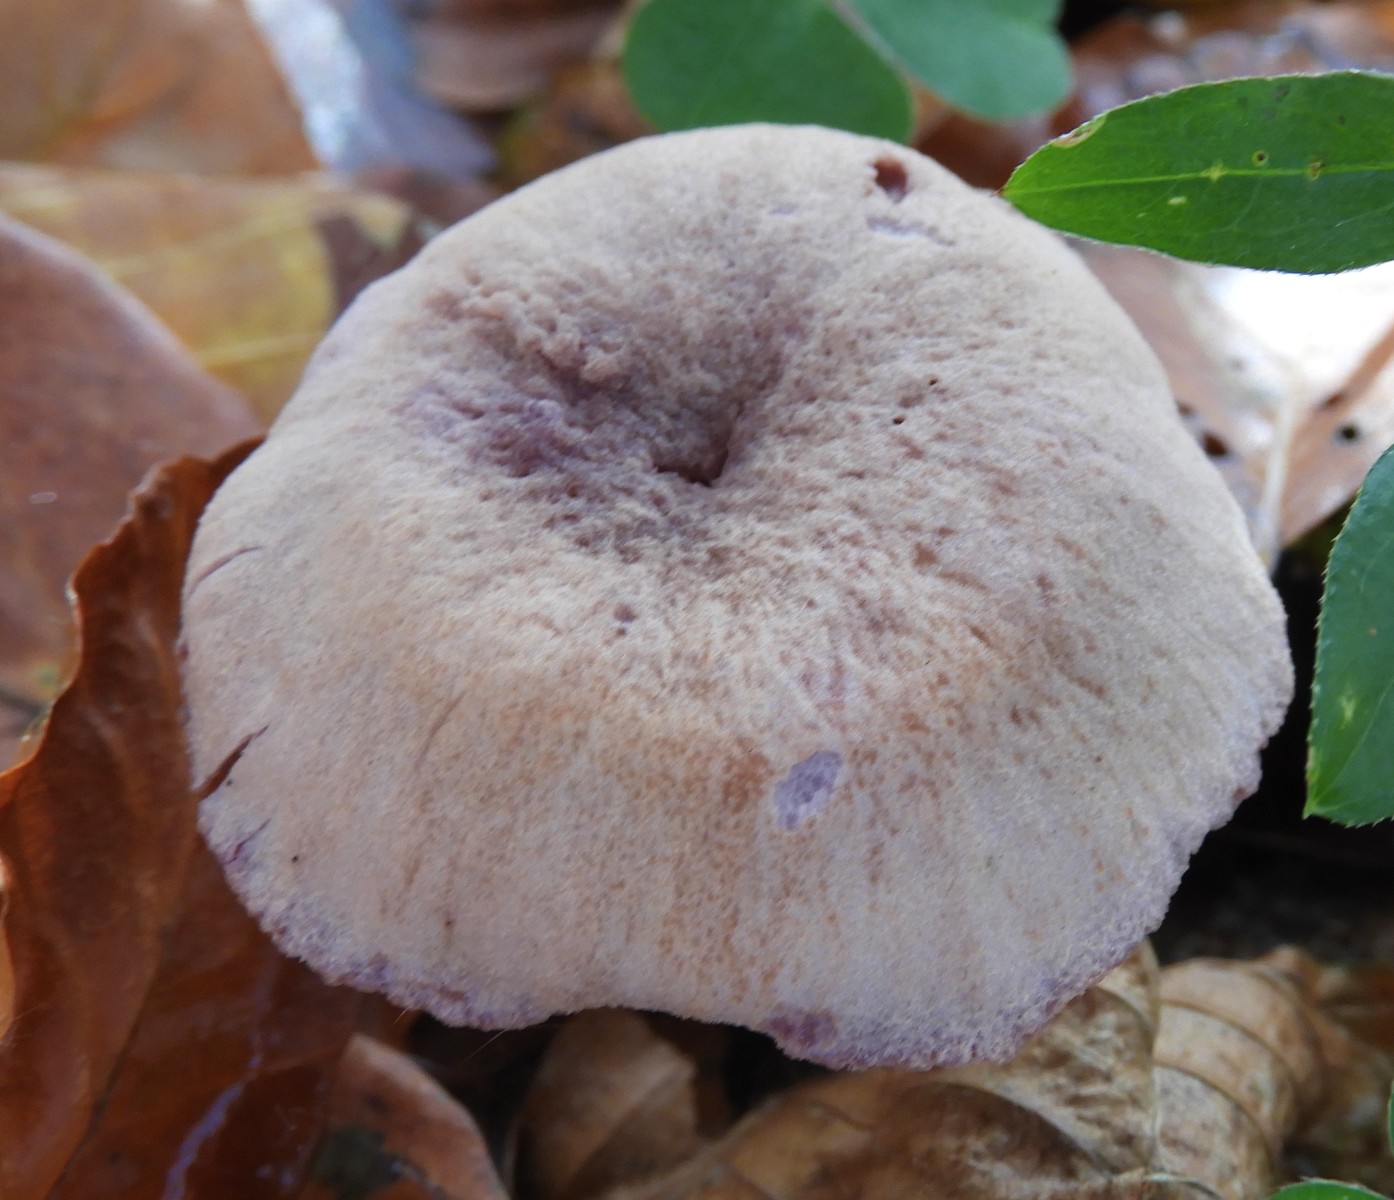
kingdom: Fungi
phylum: Basidiomycota
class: Agaricomycetes
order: Agaricales
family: Hydnangiaceae
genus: Laccaria
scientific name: Laccaria amethystina
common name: violet ametysthat
